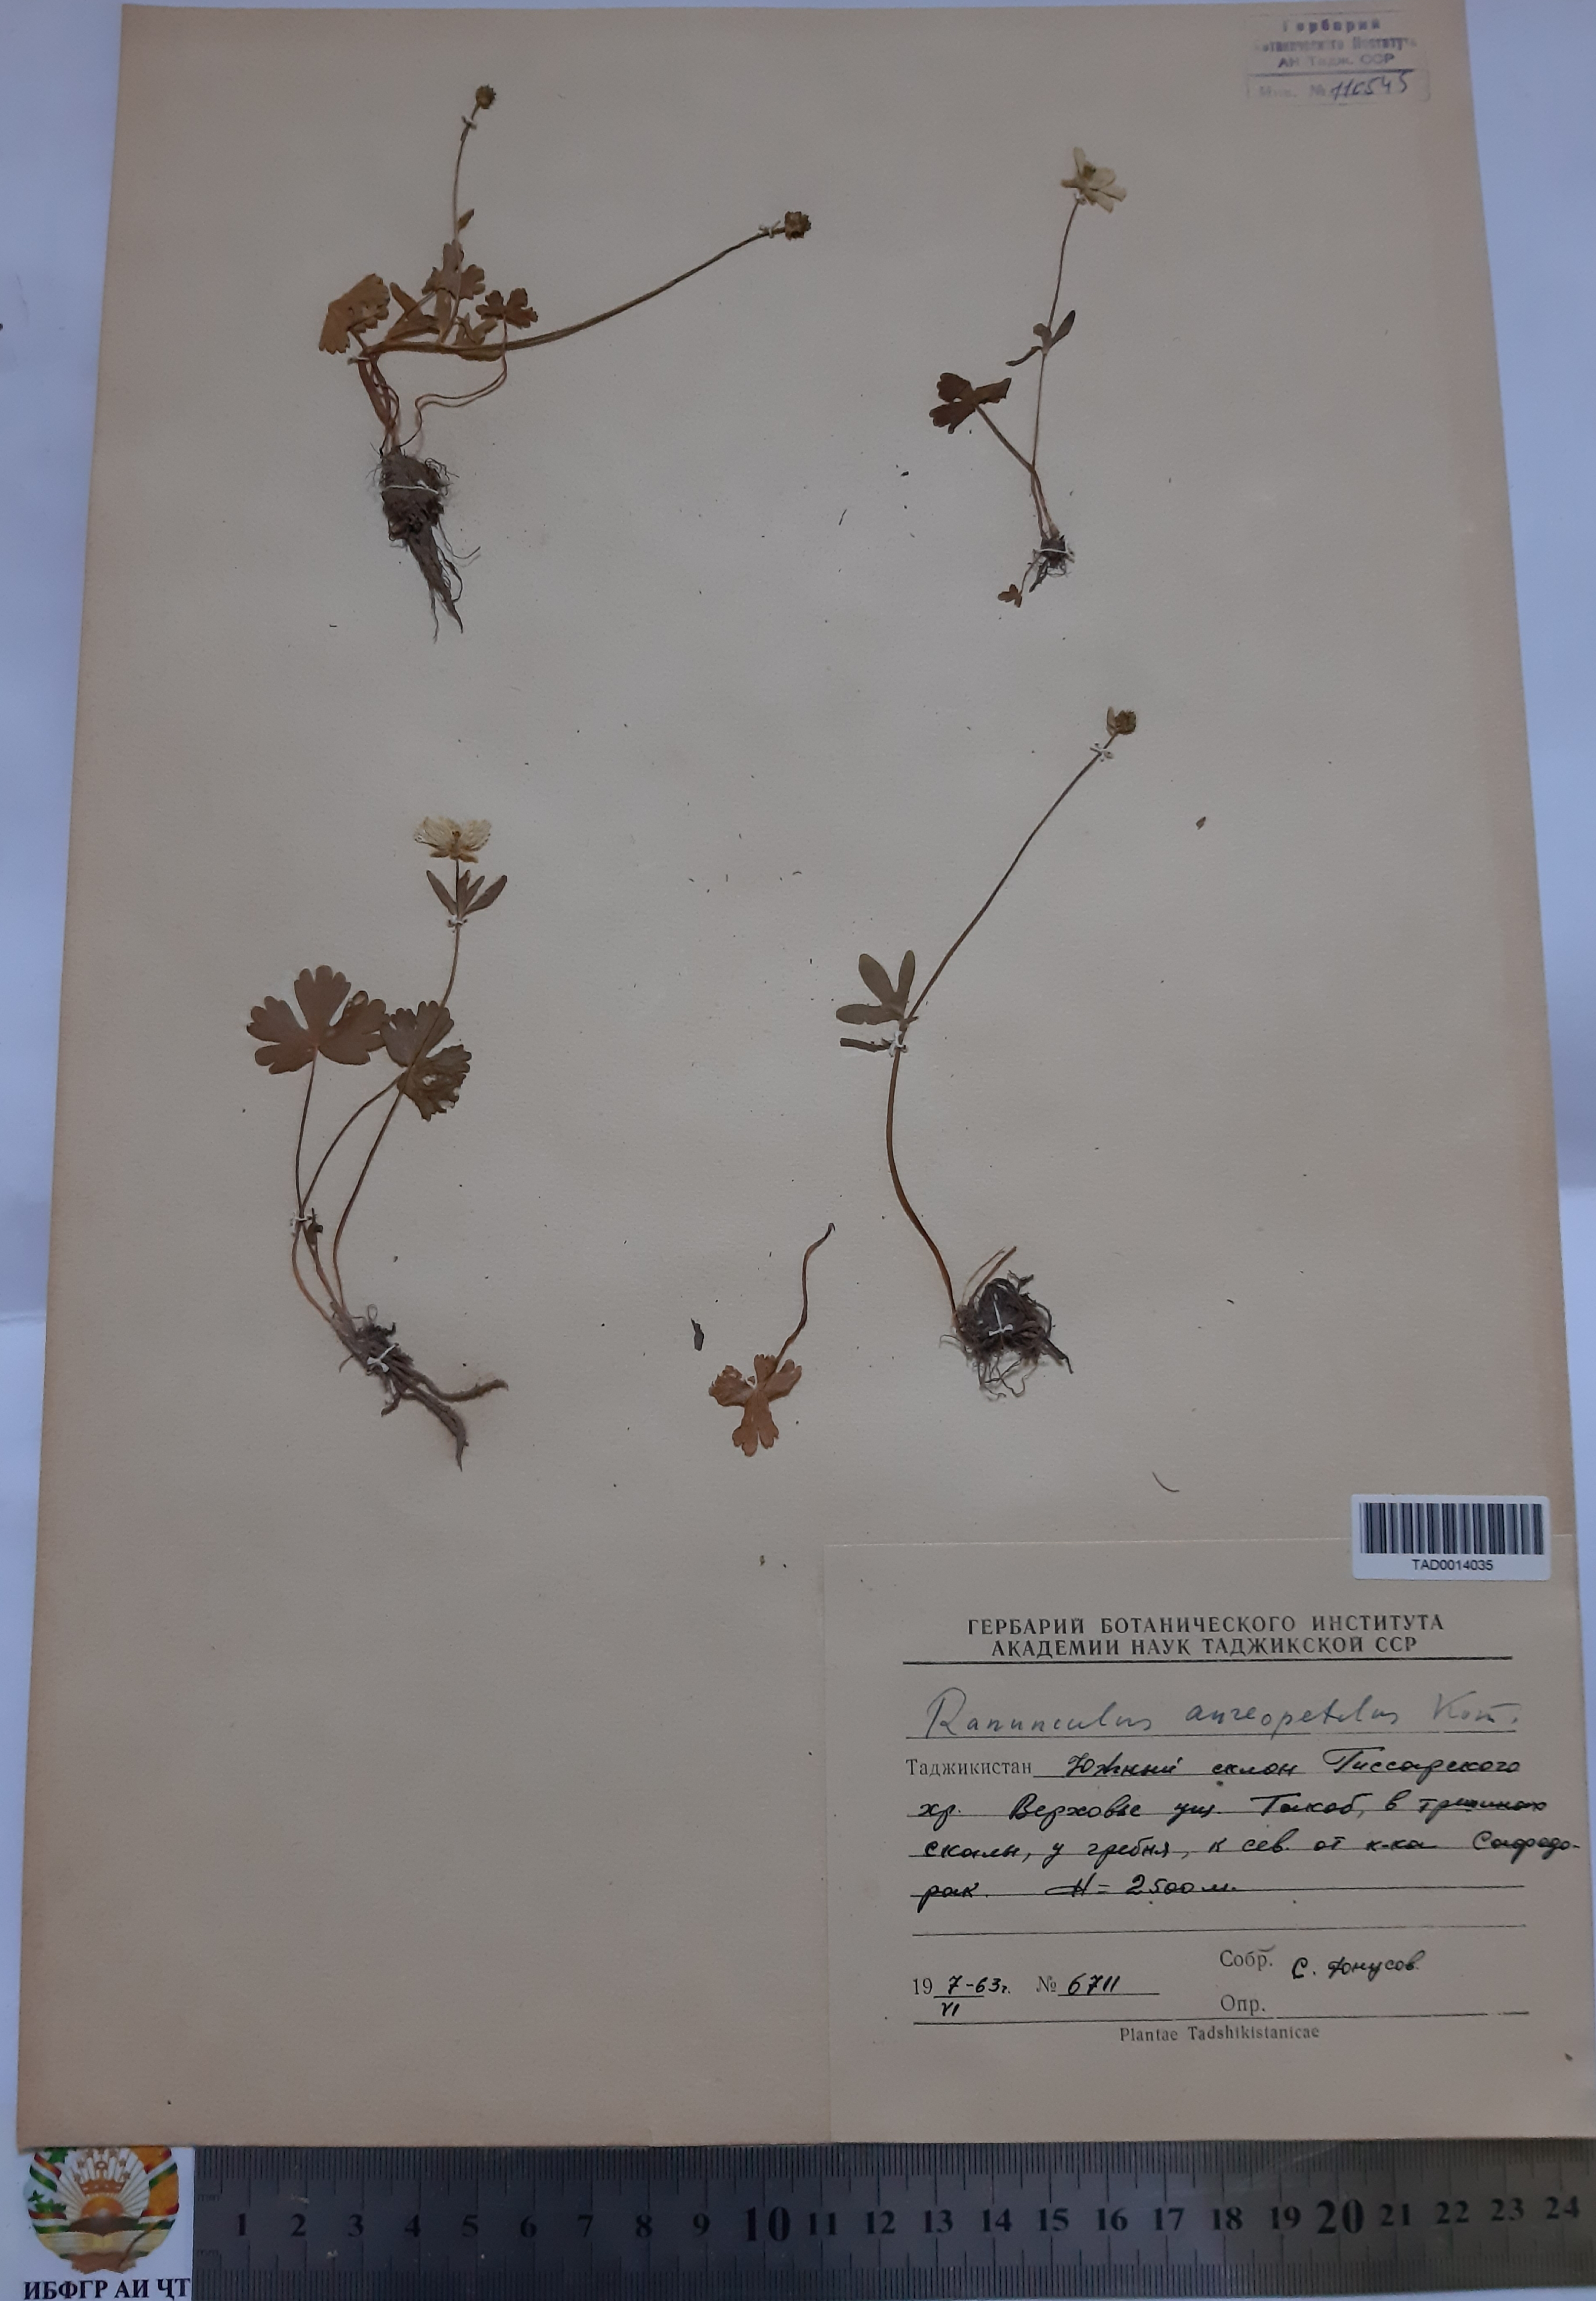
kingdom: Plantae
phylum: Tracheophyta
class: Magnoliopsida
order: Ranunculales
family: Ranunculaceae
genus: Ranunculus
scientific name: Ranunculus aureopetalus
